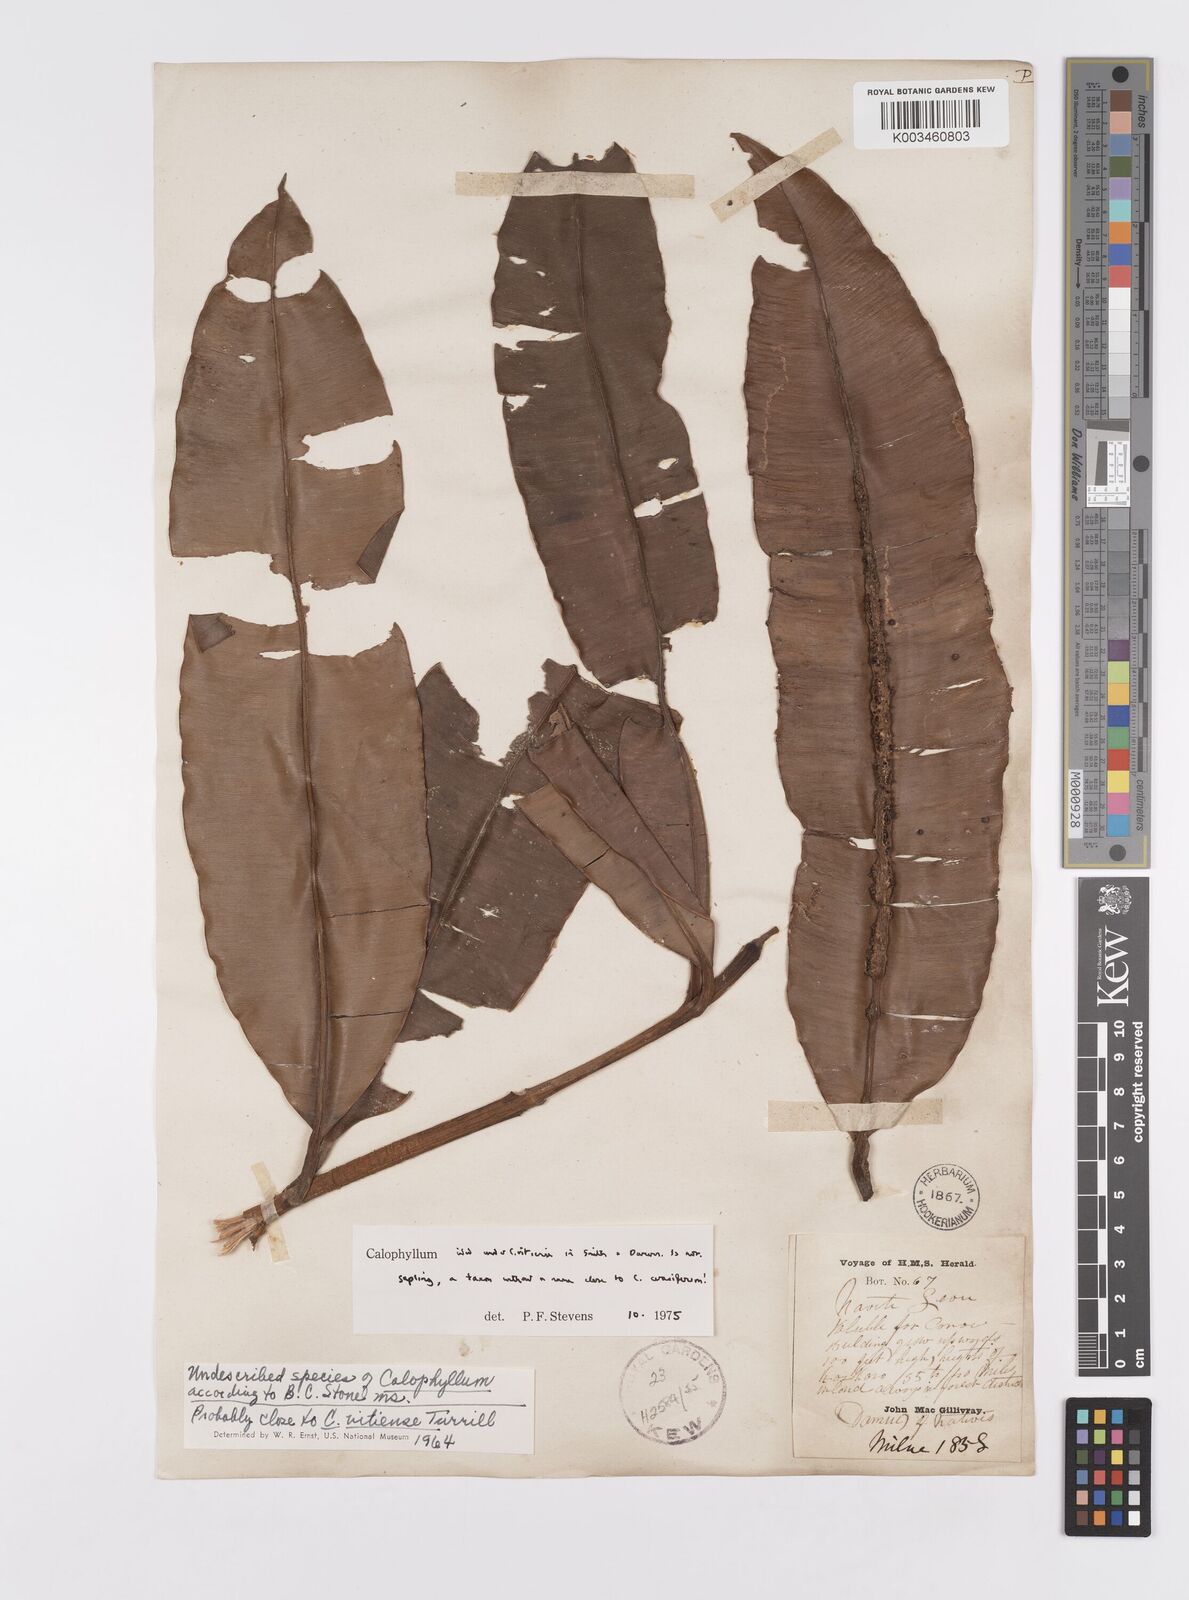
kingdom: Plantae
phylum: Tracheophyta
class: Magnoliopsida
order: Malpighiales
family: Calophyllaceae
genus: Calophyllum
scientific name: Calophyllum cerasiferum
